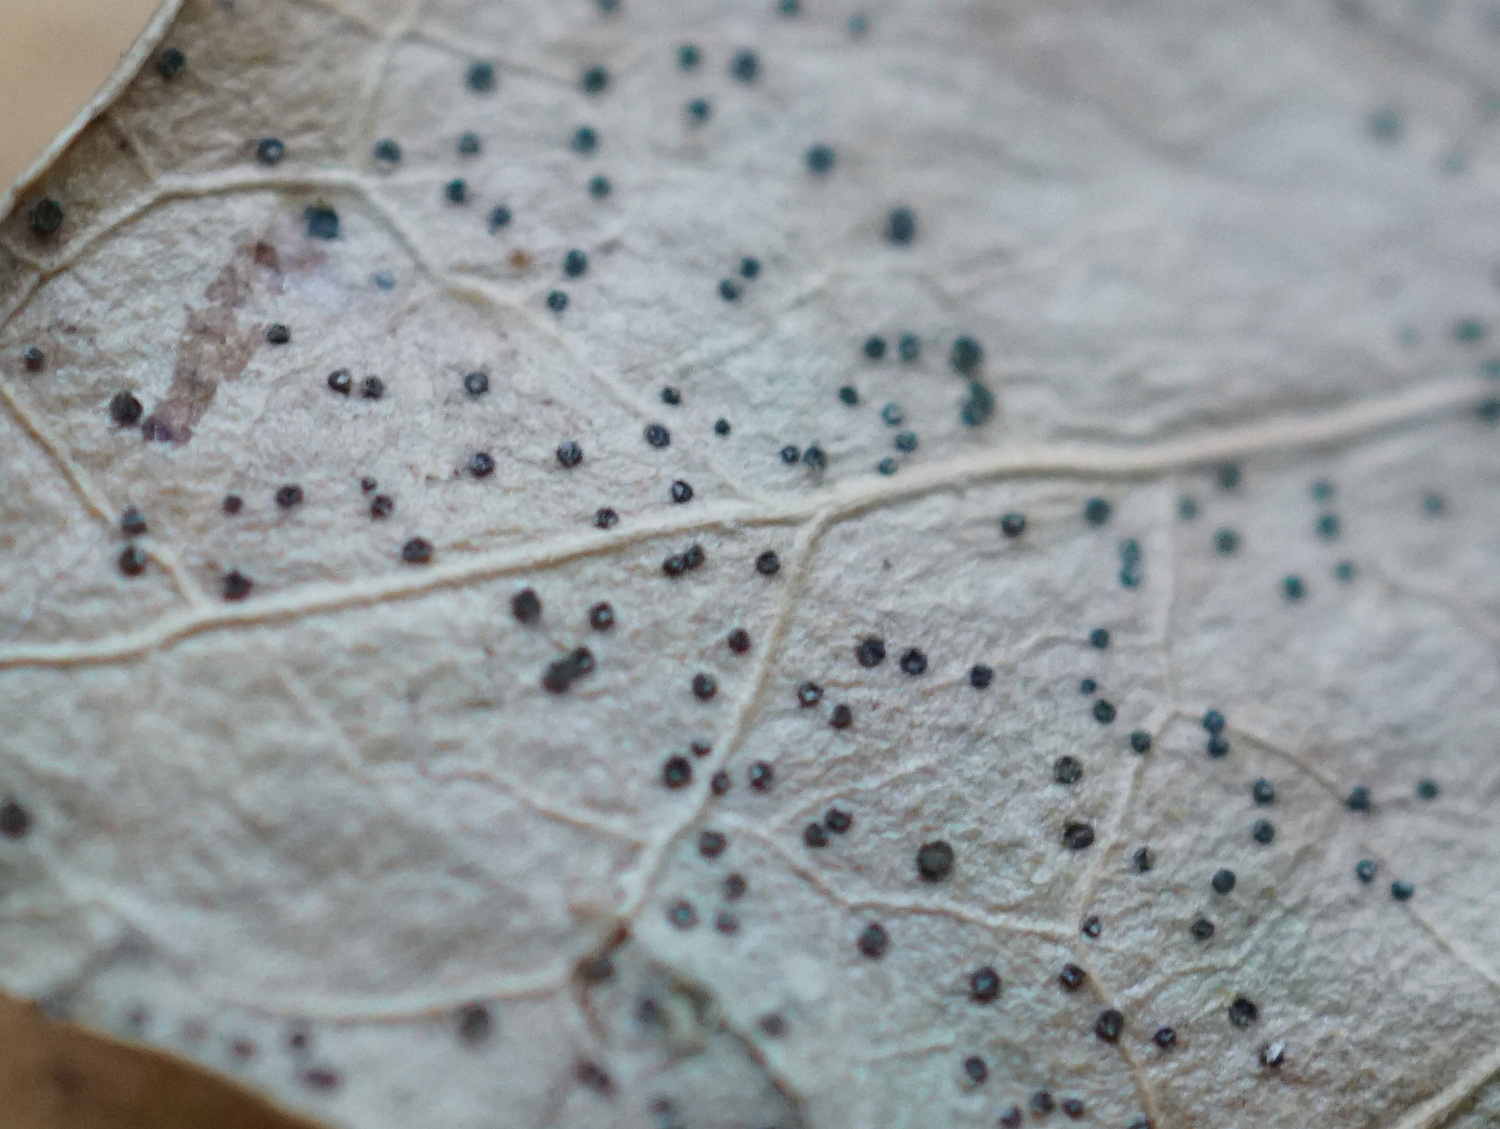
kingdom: Fungi
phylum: Ascomycota
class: Leotiomycetes
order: Helotiales
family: Cenangiaceae
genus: Trochila
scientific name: Trochila craterium
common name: vedbend-lågskive
